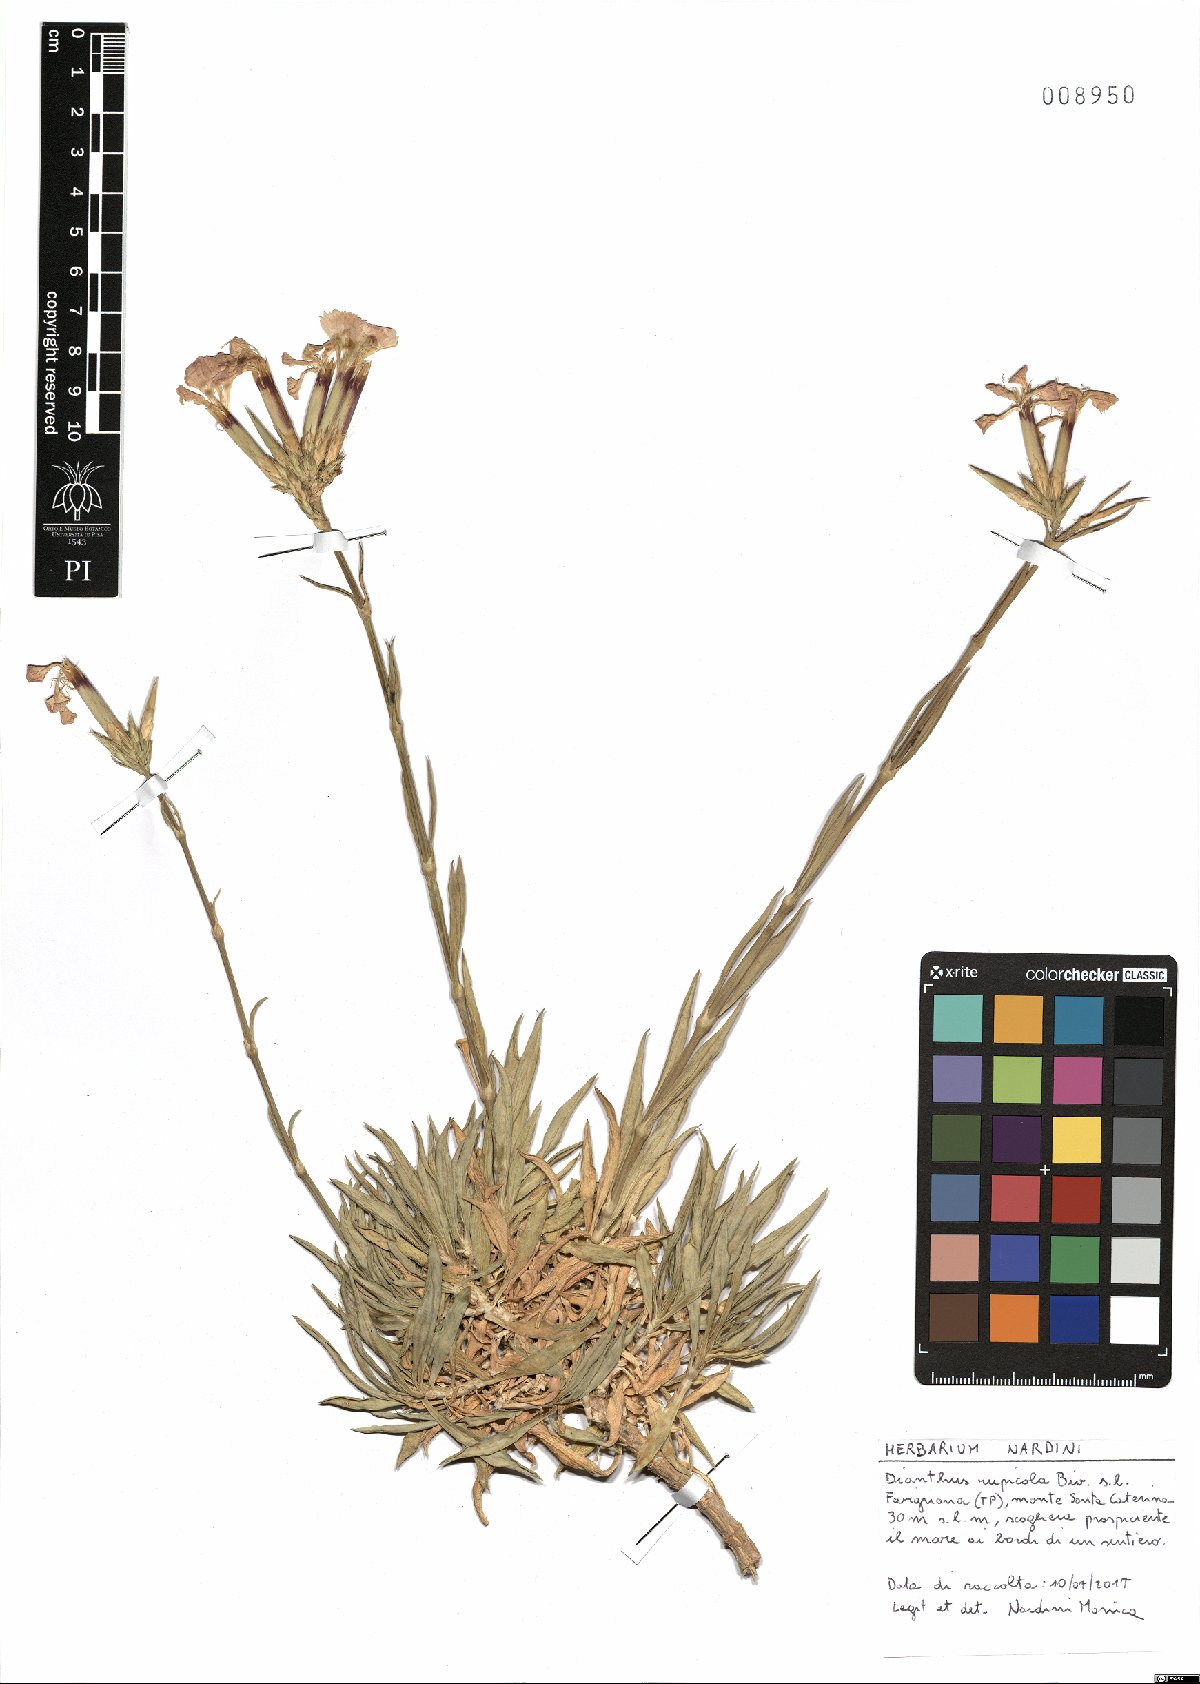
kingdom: Plantae
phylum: Tracheophyta
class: Magnoliopsida
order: Caryophyllales
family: Caryophyllaceae
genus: Dianthus
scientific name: Dianthus rupicola
